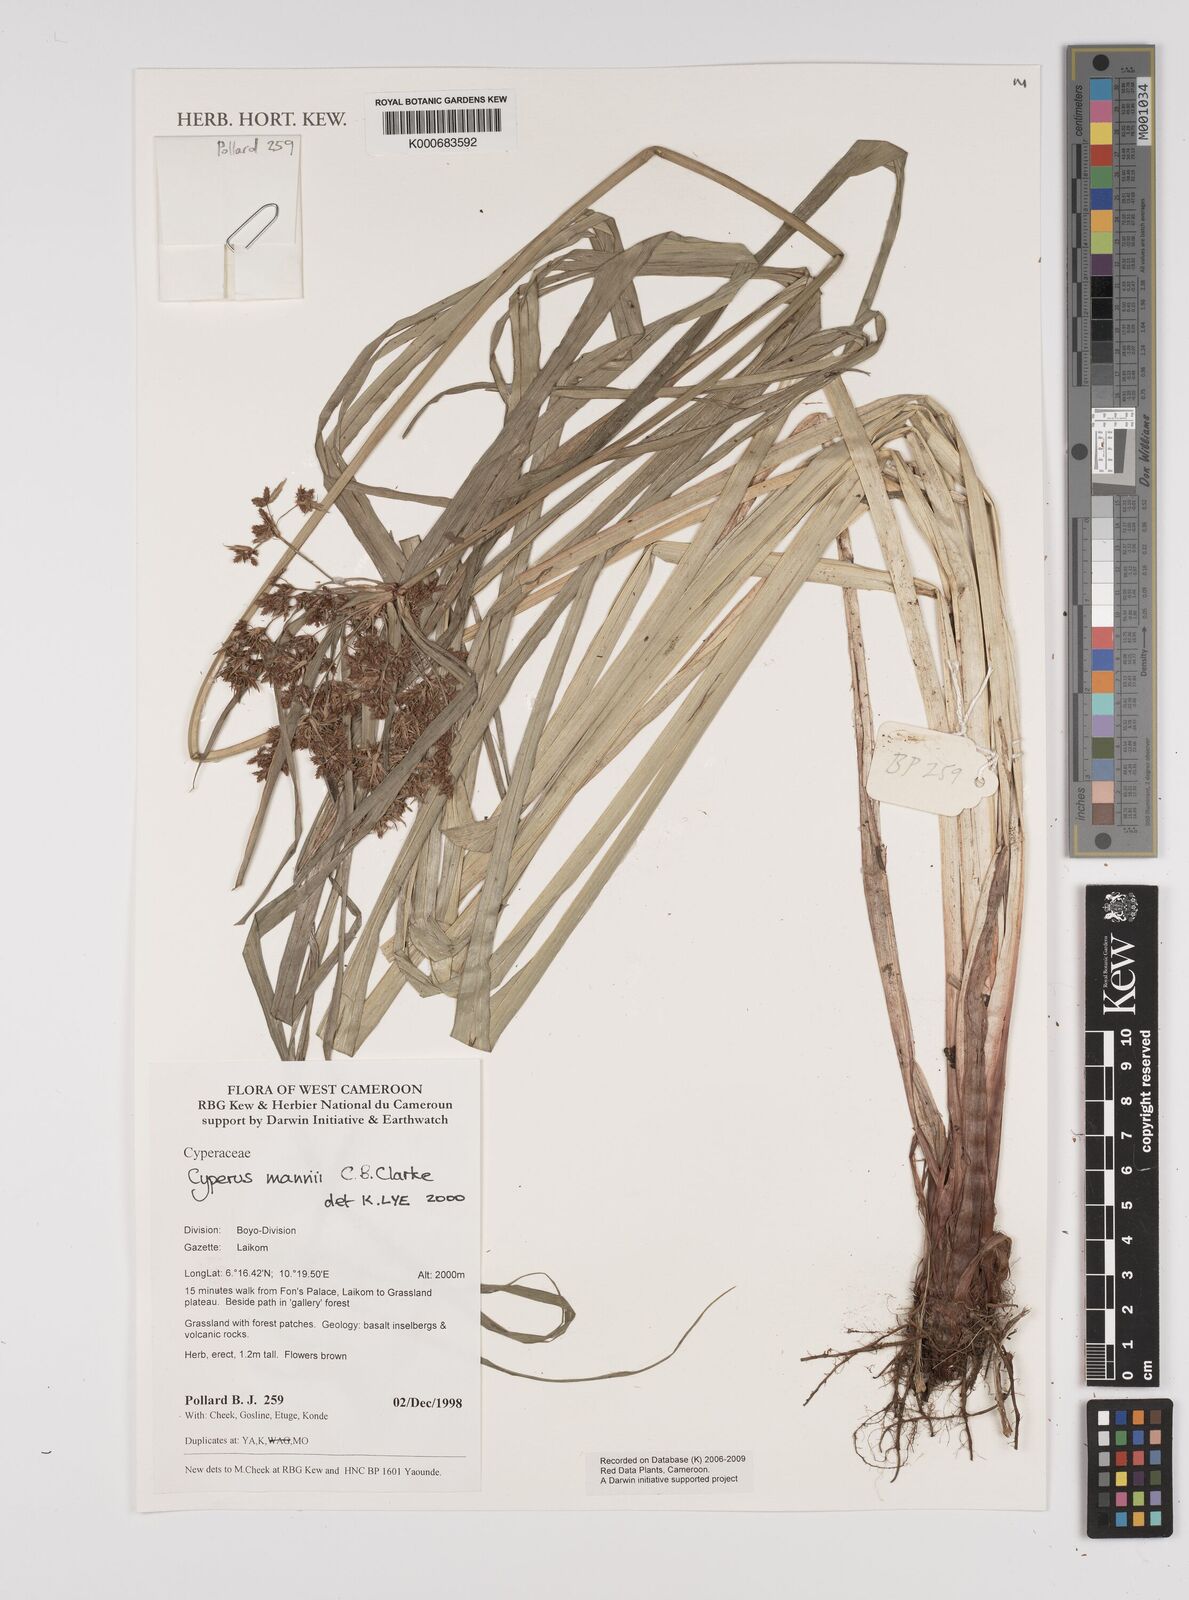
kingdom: Plantae
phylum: Tracheophyta
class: Liliopsida
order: Poales
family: Cyperaceae
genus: Cyperus
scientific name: Cyperus baronii
